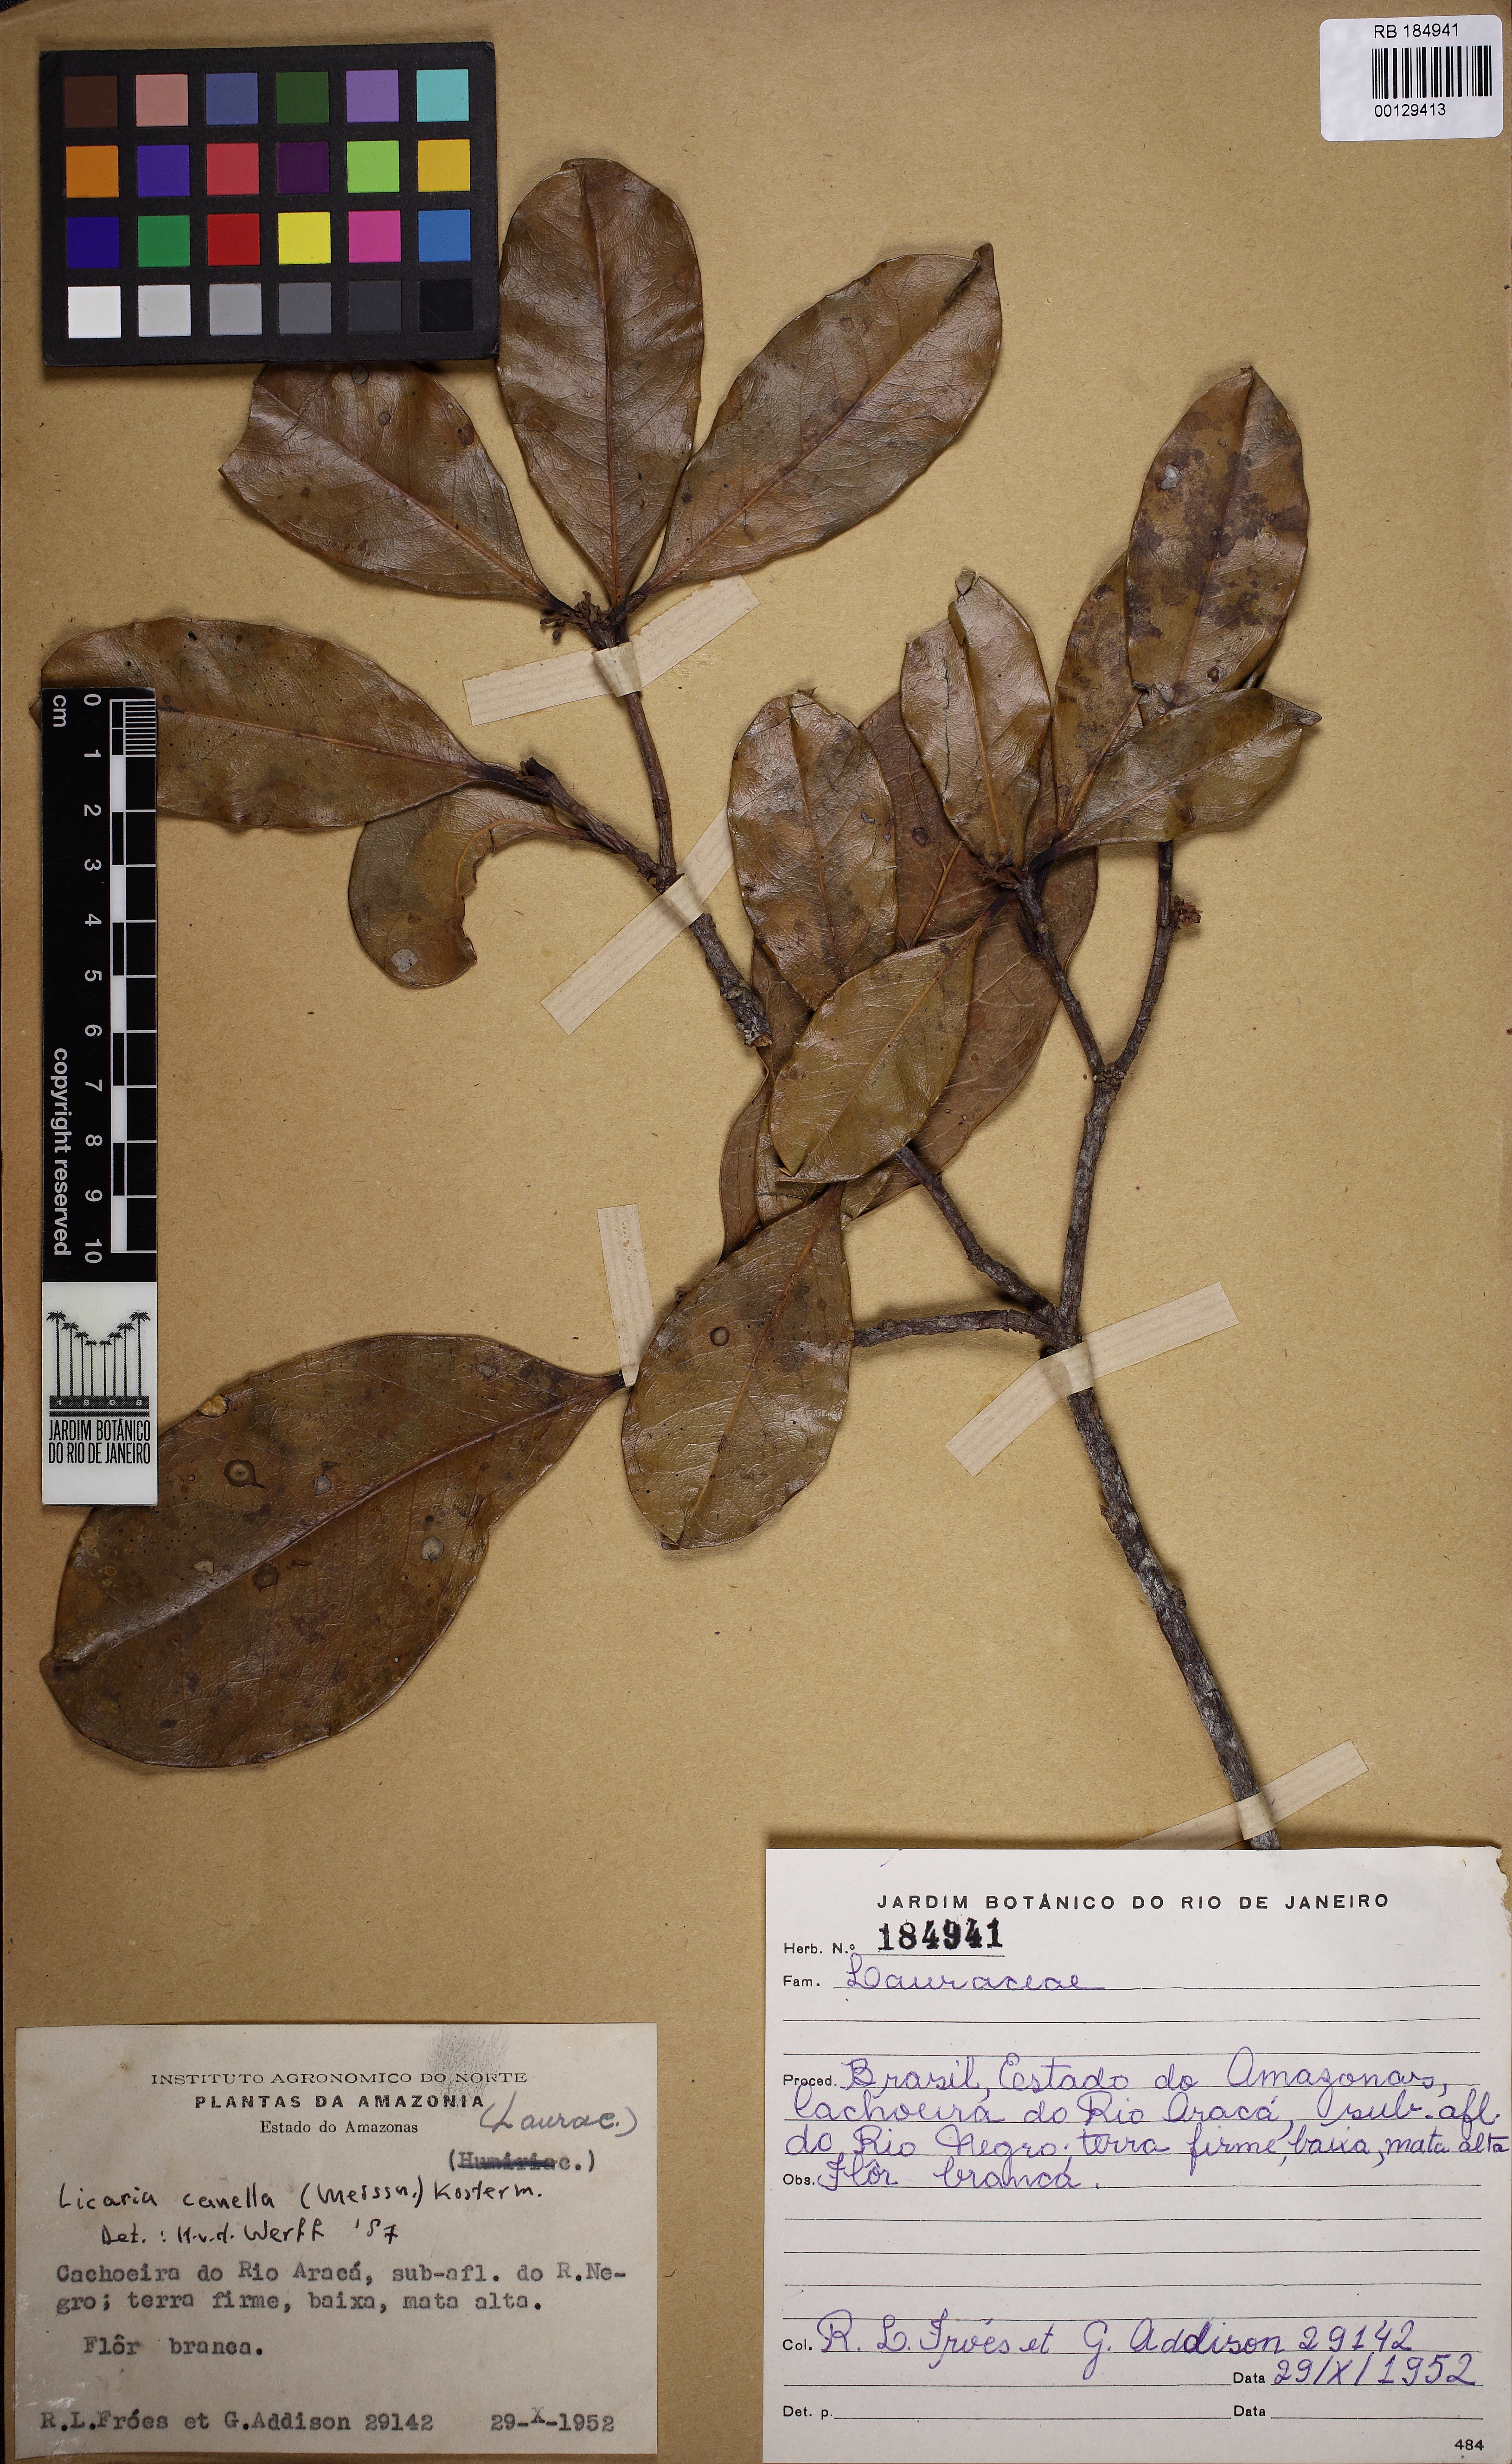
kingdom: Plantae
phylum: Tracheophyta
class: Magnoliopsida
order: Laurales
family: Lauraceae
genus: Licaria
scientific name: Licaria canella
